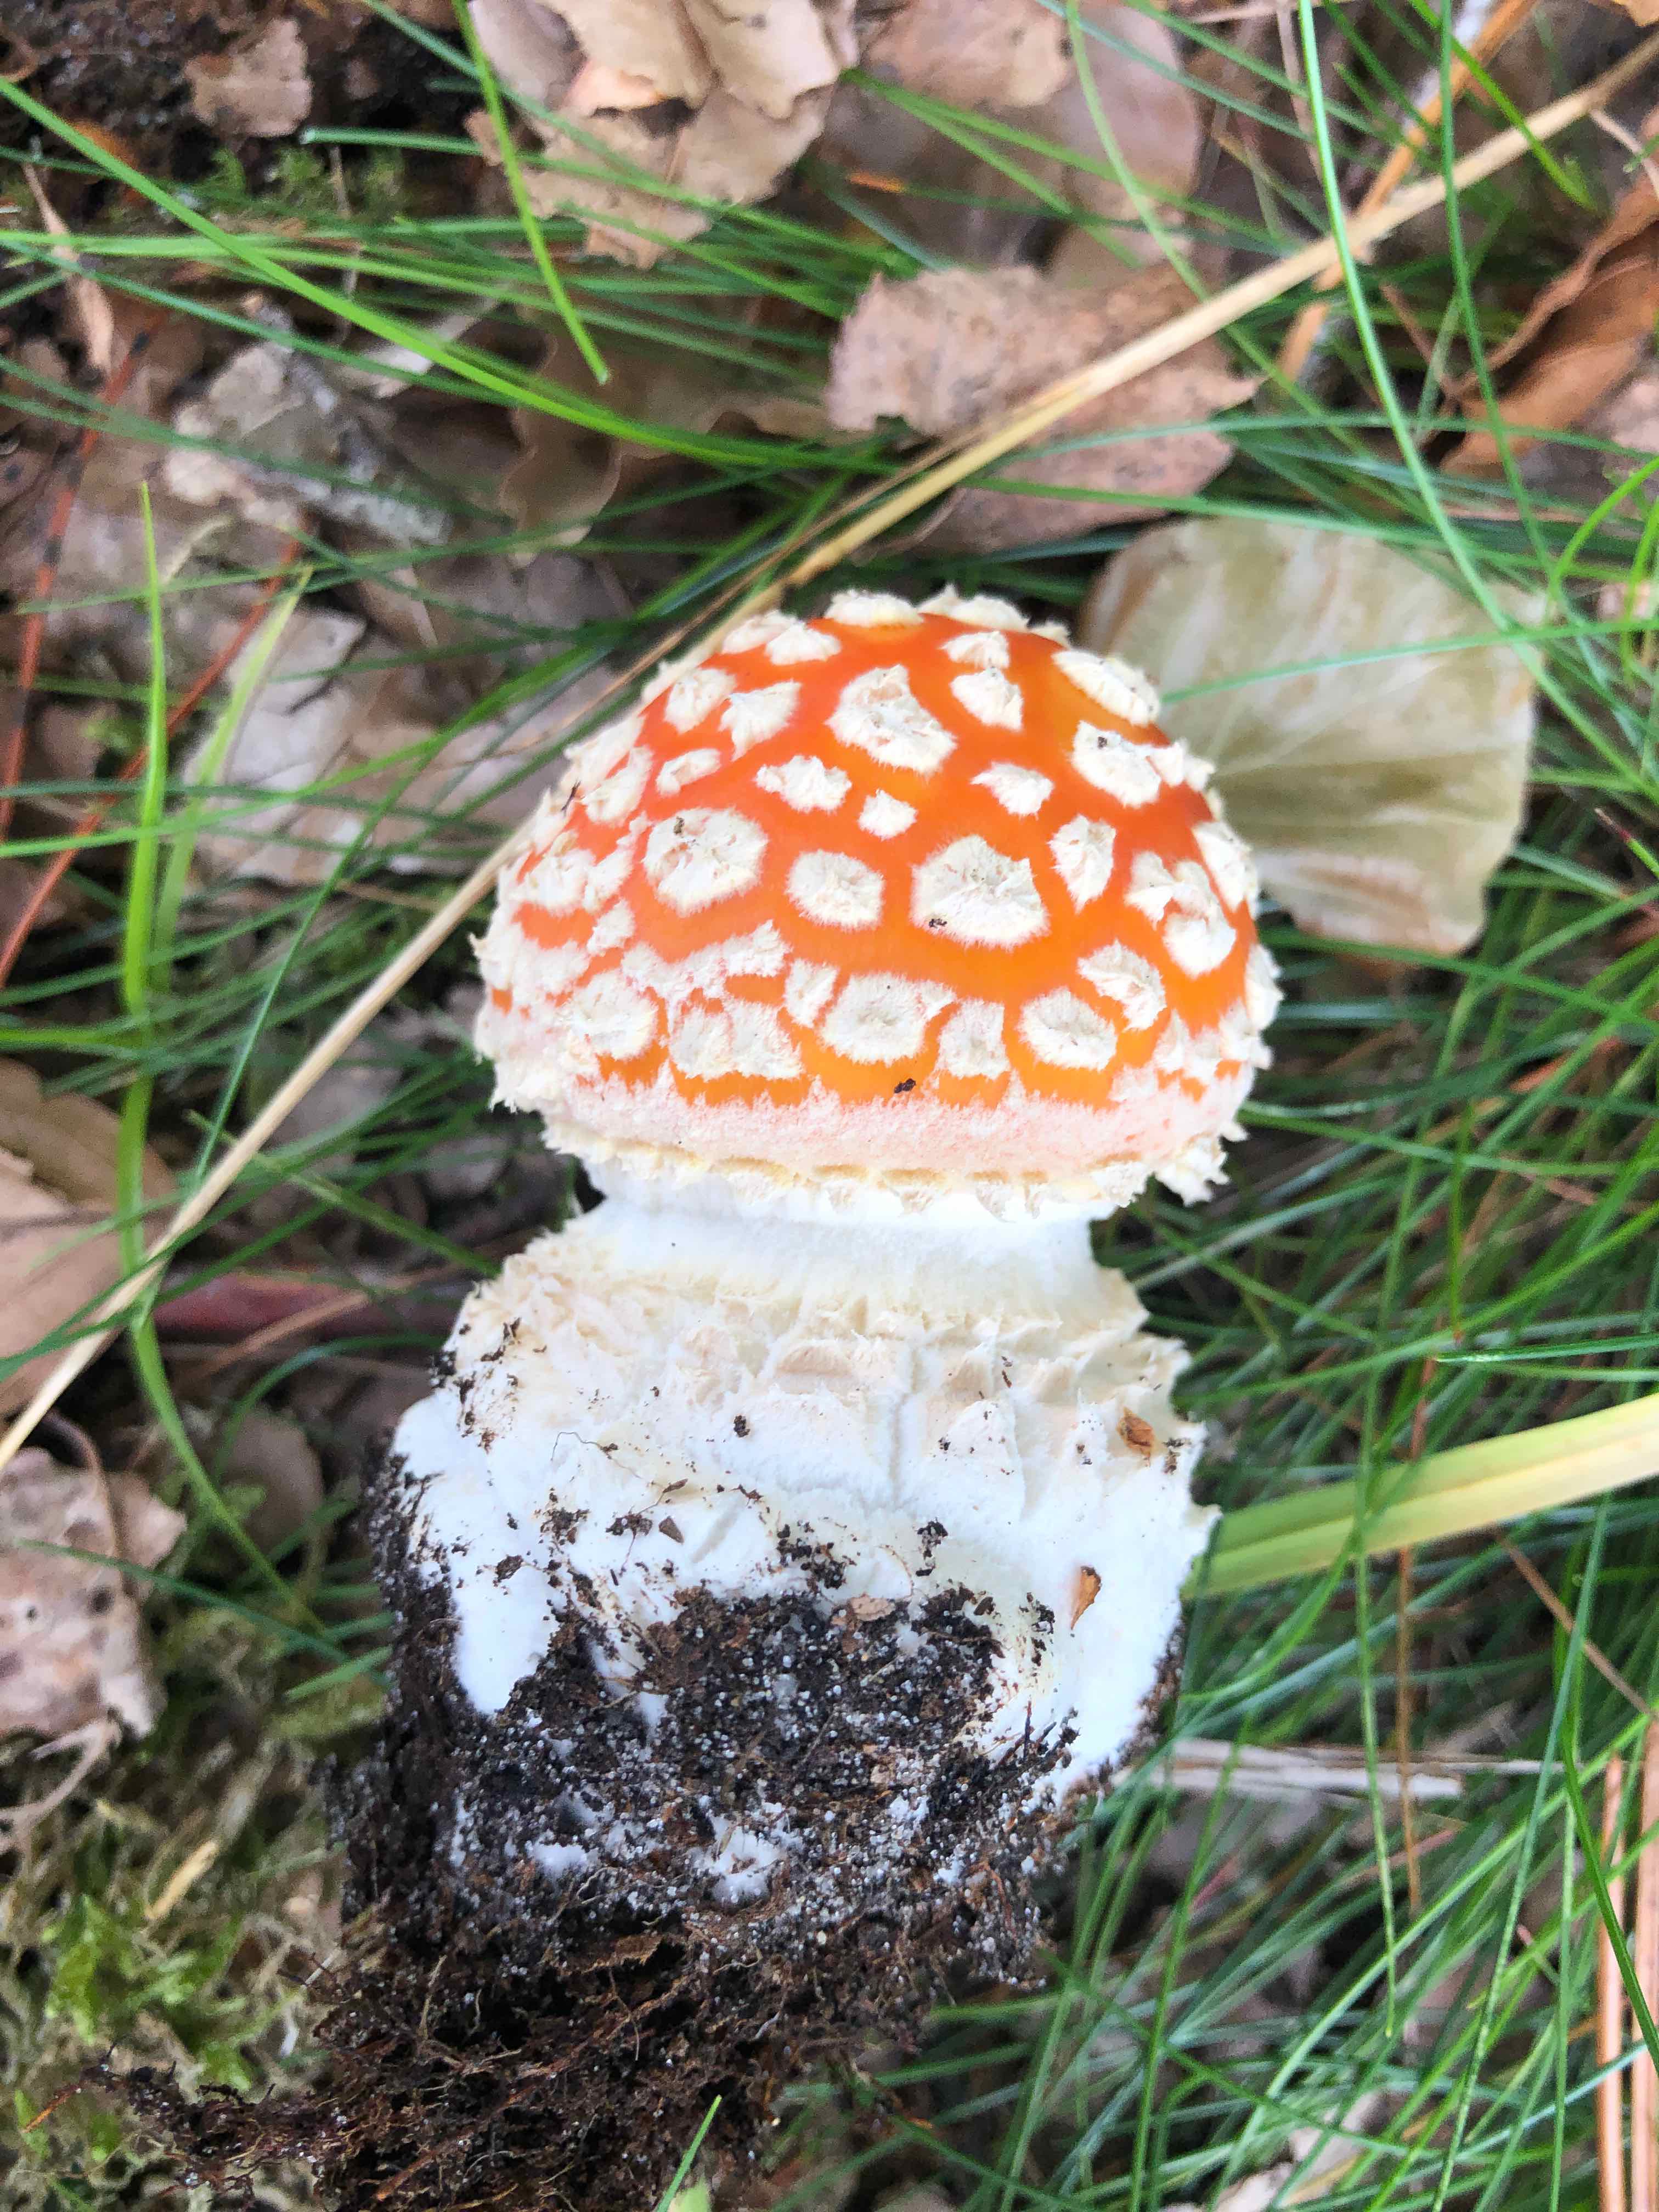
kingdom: Fungi
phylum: Basidiomycota
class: Agaricomycetes
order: Agaricales
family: Amanitaceae
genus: Amanita
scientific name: Amanita muscaria
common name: rød fluesvamp
